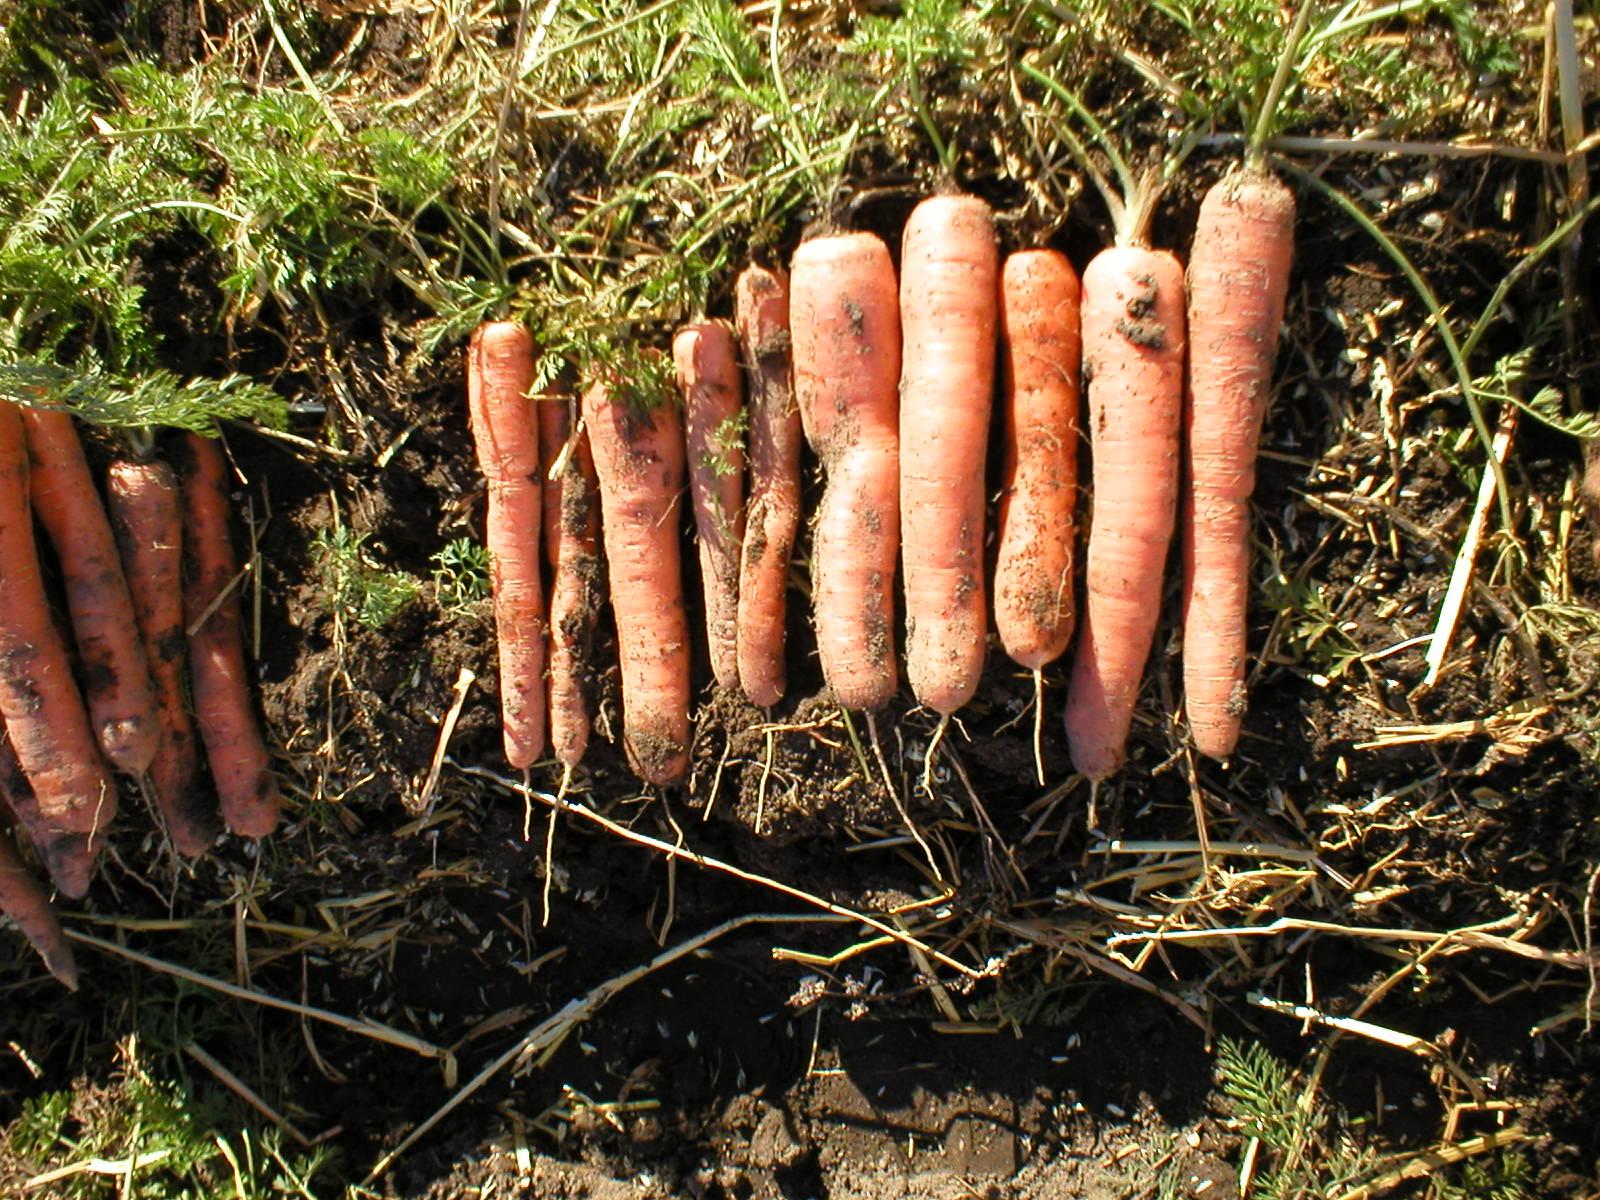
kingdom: Plantae
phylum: Tracheophyta
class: Magnoliopsida
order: Apiales
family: Apiaceae
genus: Daucus
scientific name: Daucus carota
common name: Wild carrot
